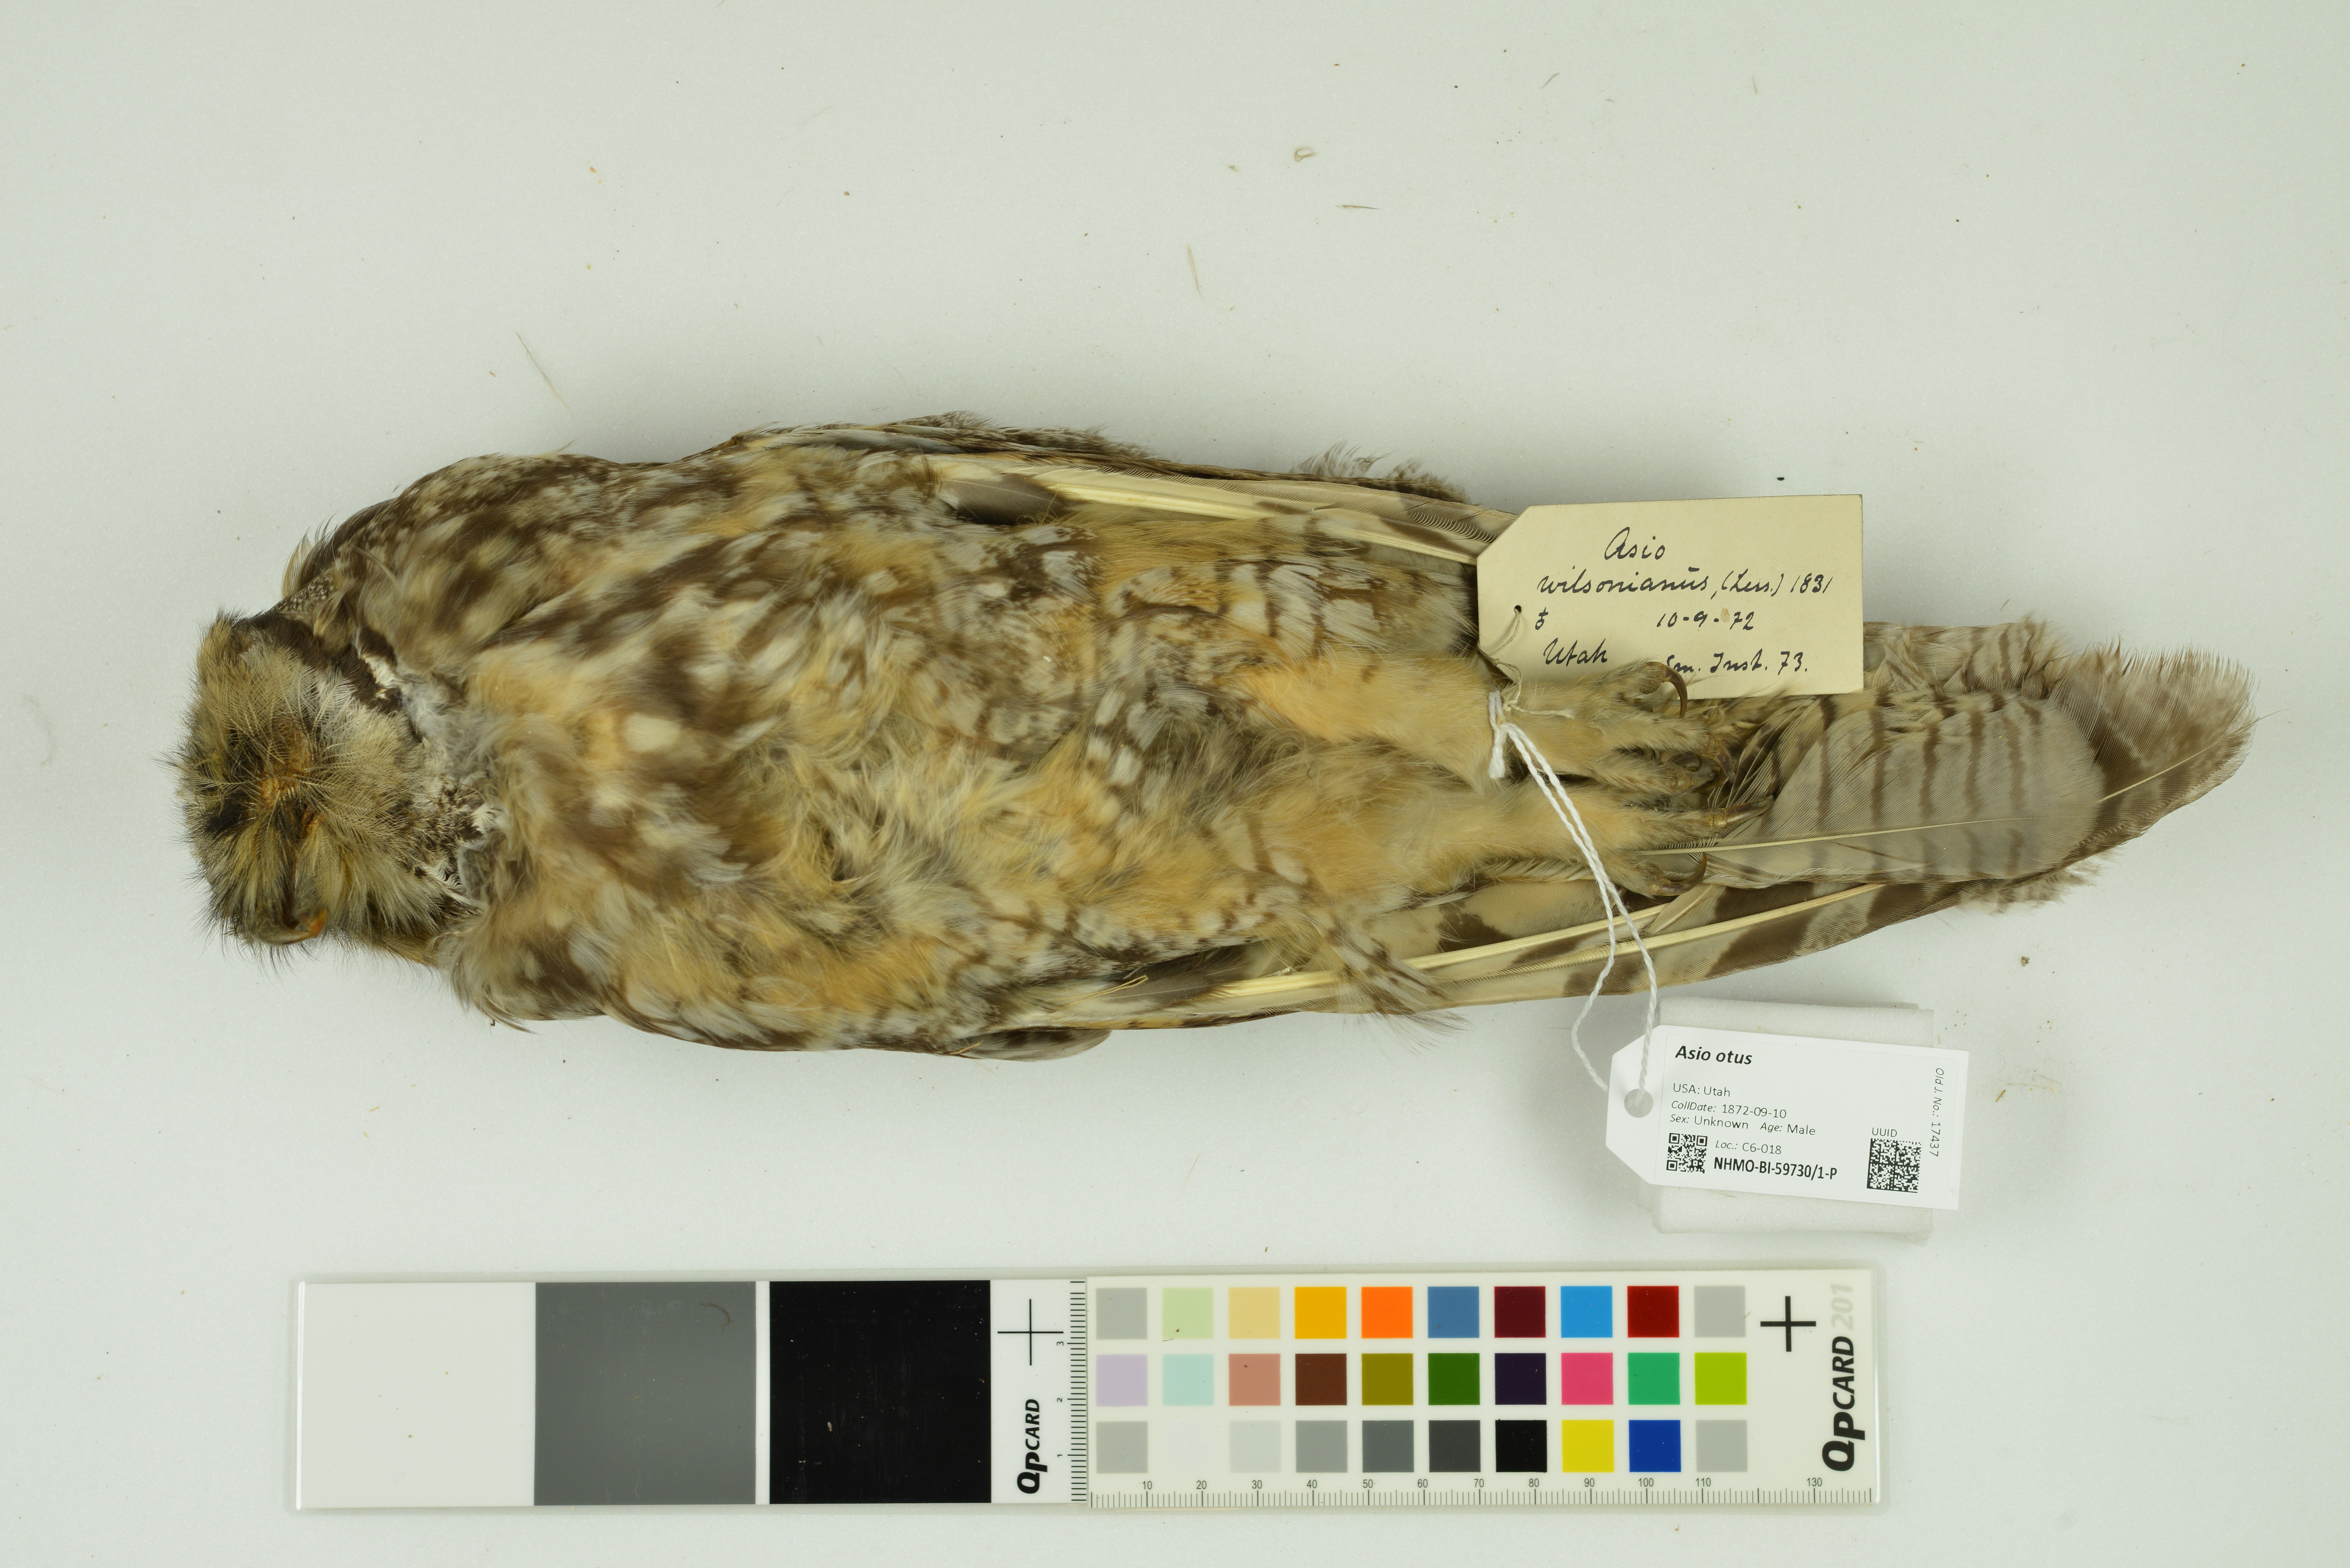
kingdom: Animalia
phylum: Chordata
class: Aves
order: Strigiformes
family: Strigidae
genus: Asio
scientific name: Asio otus
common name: Long-eared owl
